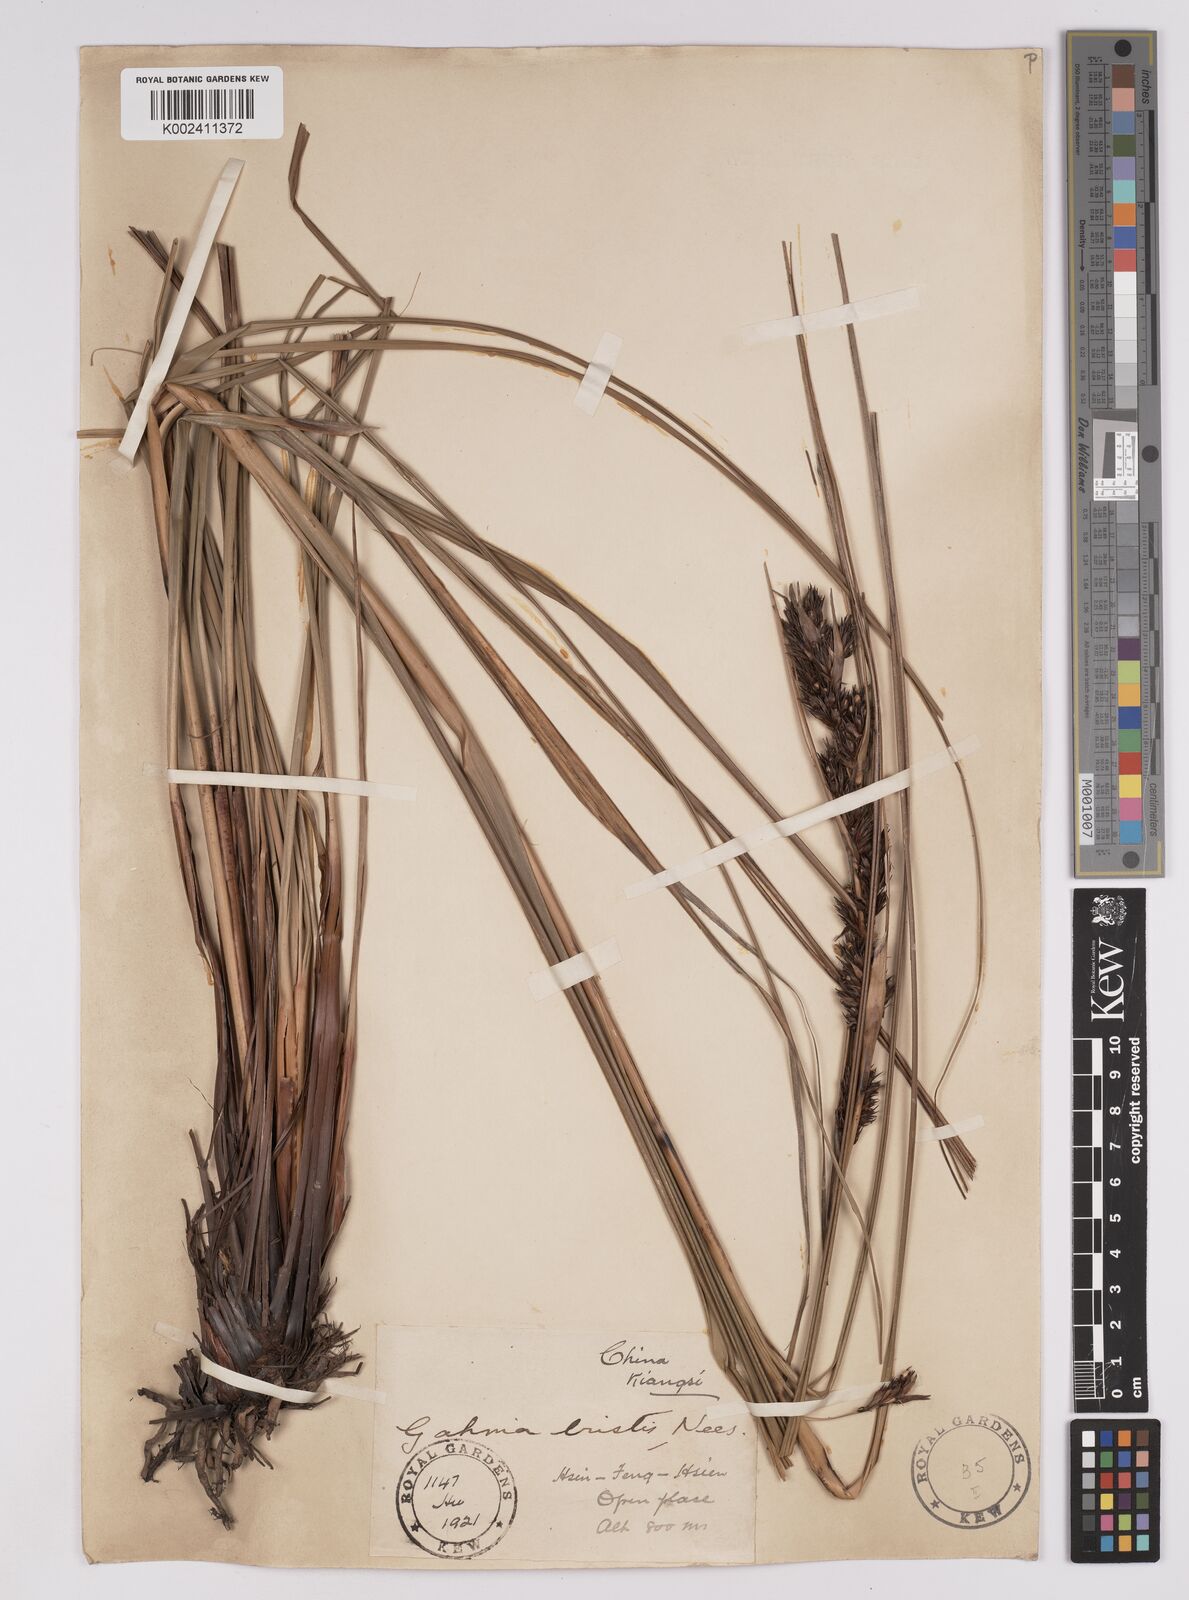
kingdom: Plantae
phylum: Tracheophyta
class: Liliopsida
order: Poales
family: Cyperaceae
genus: Gahnia
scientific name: Gahnia tristis
